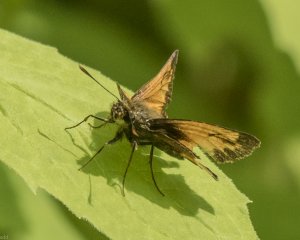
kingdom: Animalia
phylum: Arthropoda
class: Insecta
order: Lepidoptera
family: Hesperiidae
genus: Lon
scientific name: Lon hobomok
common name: Hobomok Skipper
